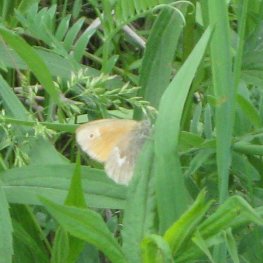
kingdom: Animalia
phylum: Arthropoda
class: Insecta
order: Lepidoptera
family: Nymphalidae
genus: Coenonympha
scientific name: Coenonympha tullia
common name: Large Heath
